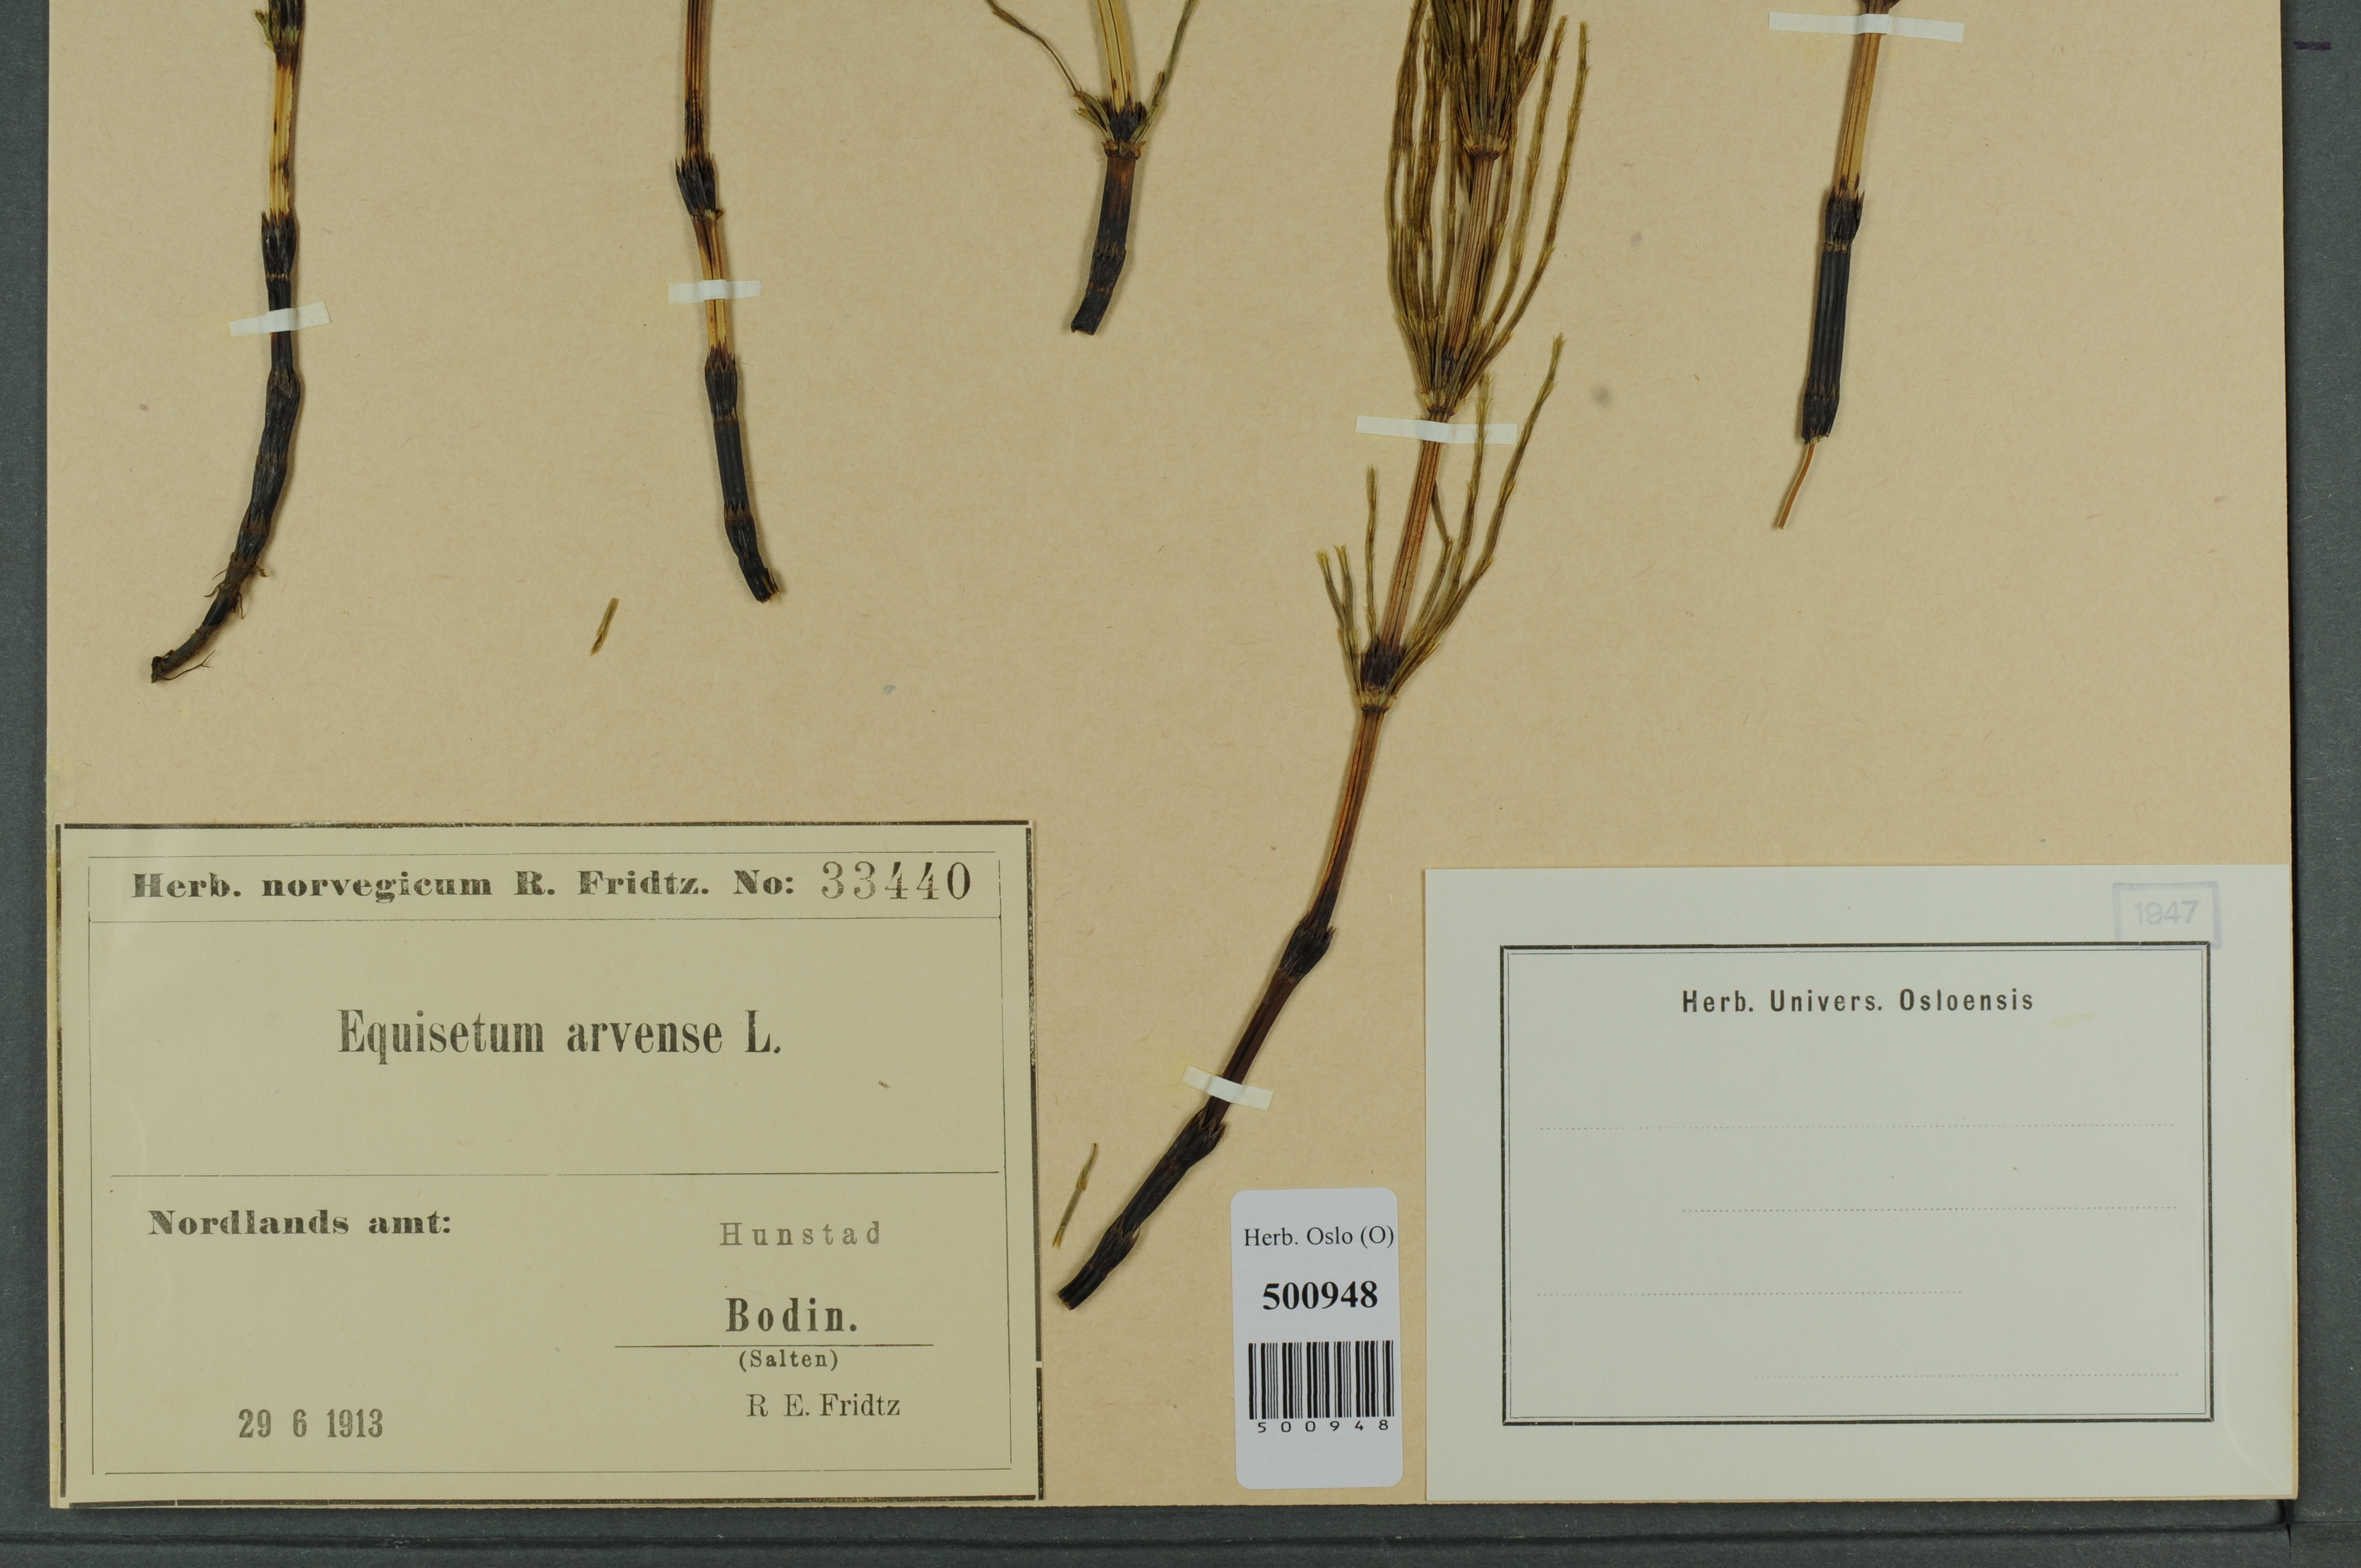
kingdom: Plantae
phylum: Tracheophyta
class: Polypodiopsida
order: Equisetales
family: Equisetaceae
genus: Equisetum
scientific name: Equisetum arvense
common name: Field horsetail
